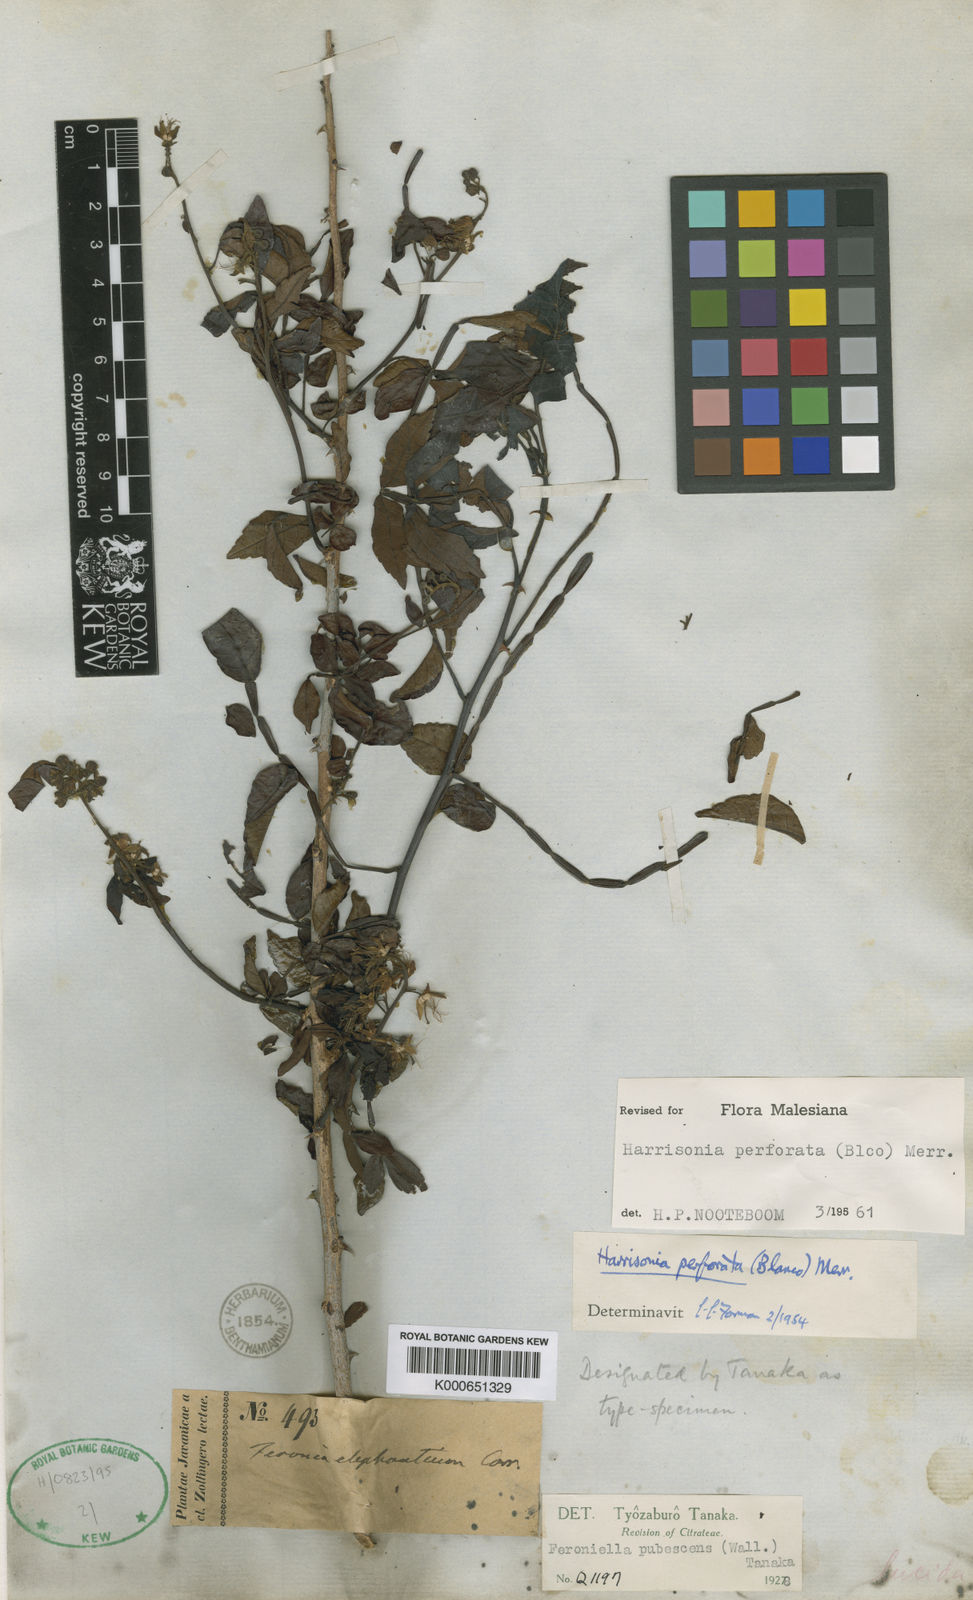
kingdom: Plantae
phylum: Tracheophyta
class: Magnoliopsida
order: Sapindales
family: Rutaceae
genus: Harrisonia
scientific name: Harrisonia perforata
